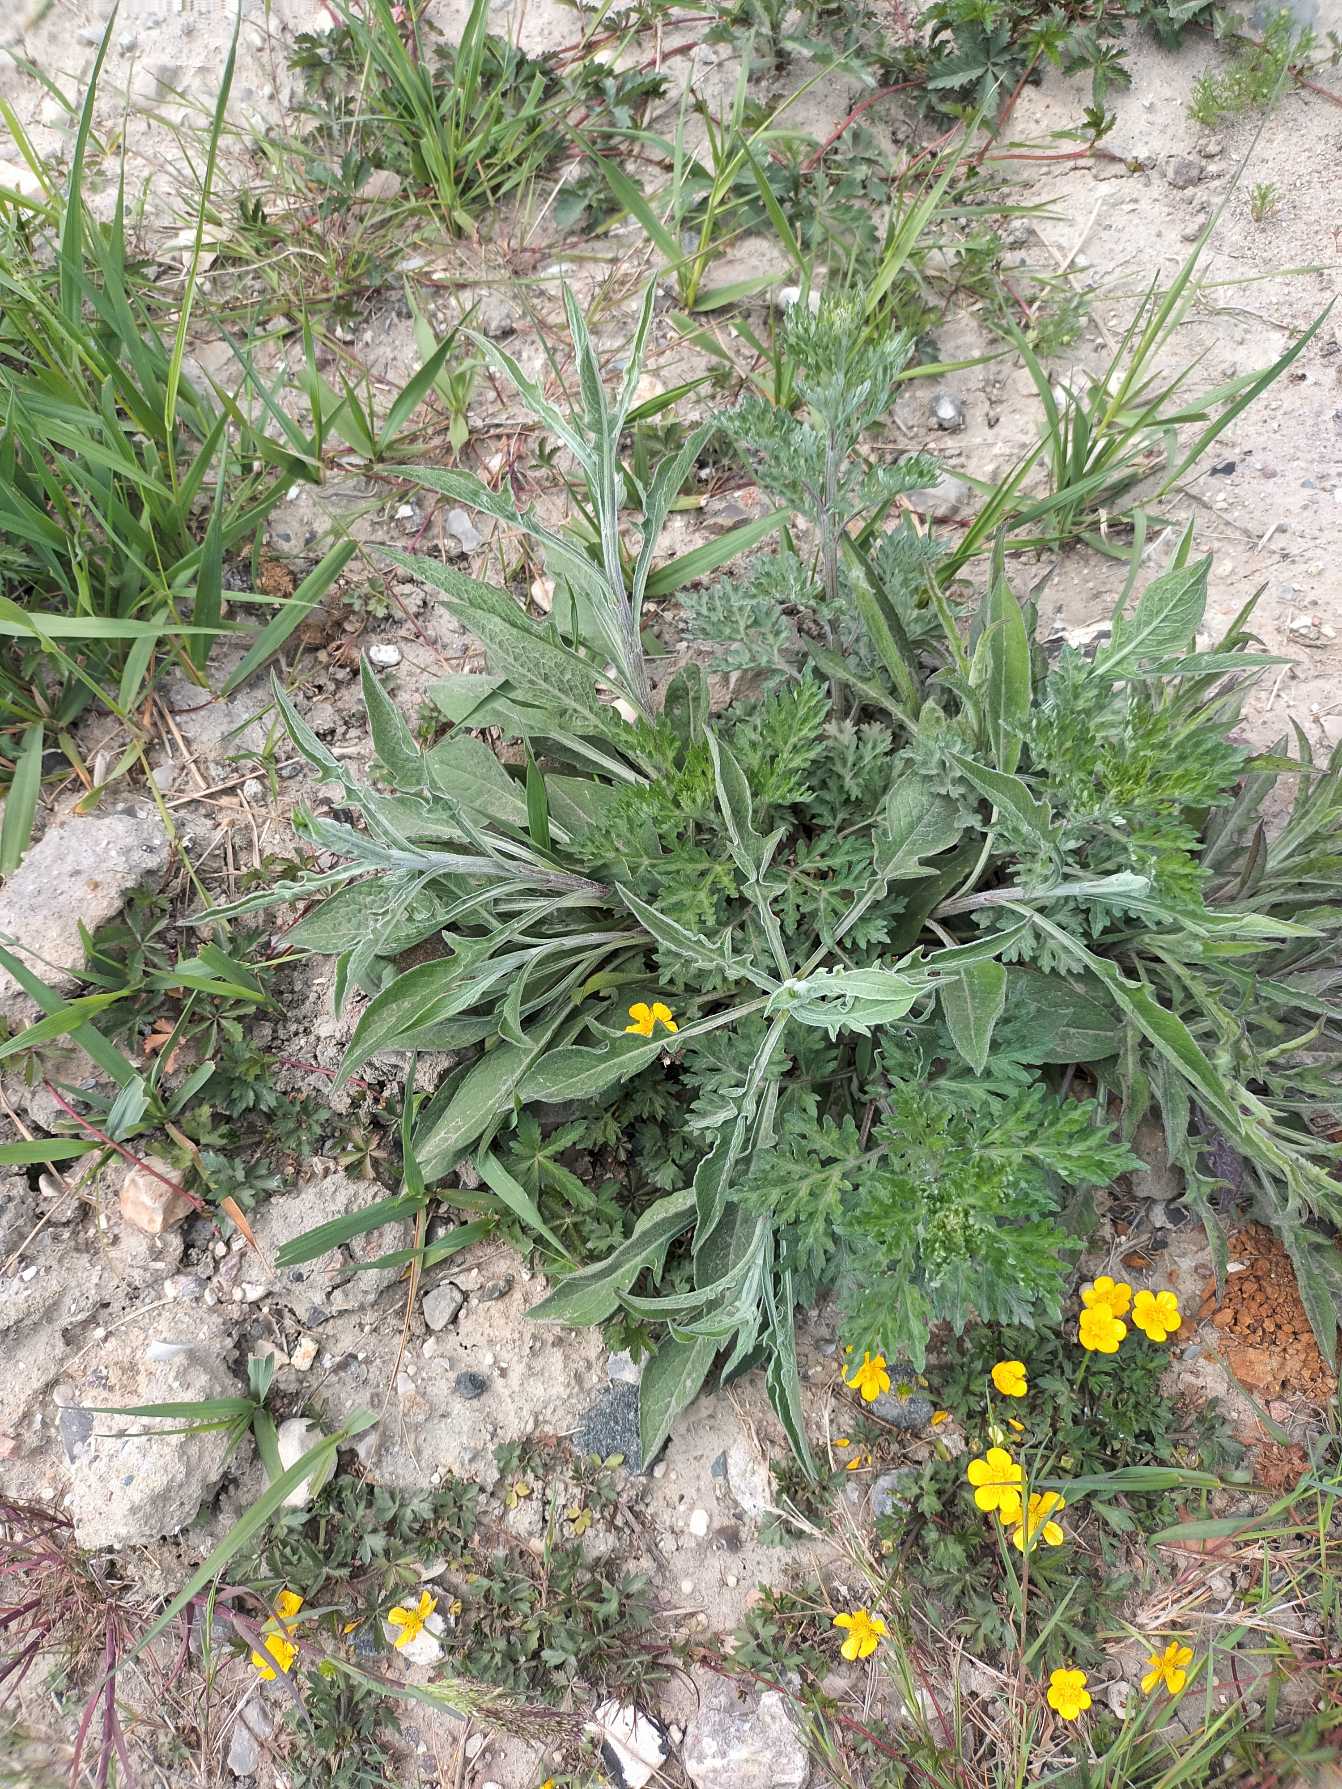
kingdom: Plantae
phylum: Tracheophyta
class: Magnoliopsida
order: Asterales
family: Asteraceae
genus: Centaurea
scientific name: Centaurea jacea
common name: Almindelig knopurt
